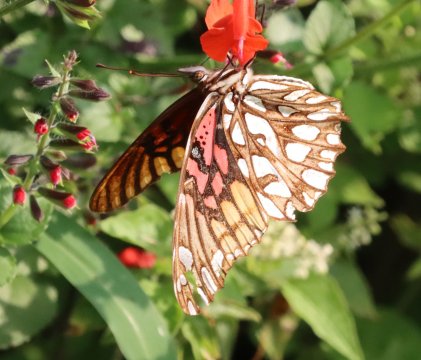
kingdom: Animalia
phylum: Arthropoda
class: Insecta
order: Lepidoptera
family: Nymphalidae
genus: Dione
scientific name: Dione moneta
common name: Mexican Silverspot
